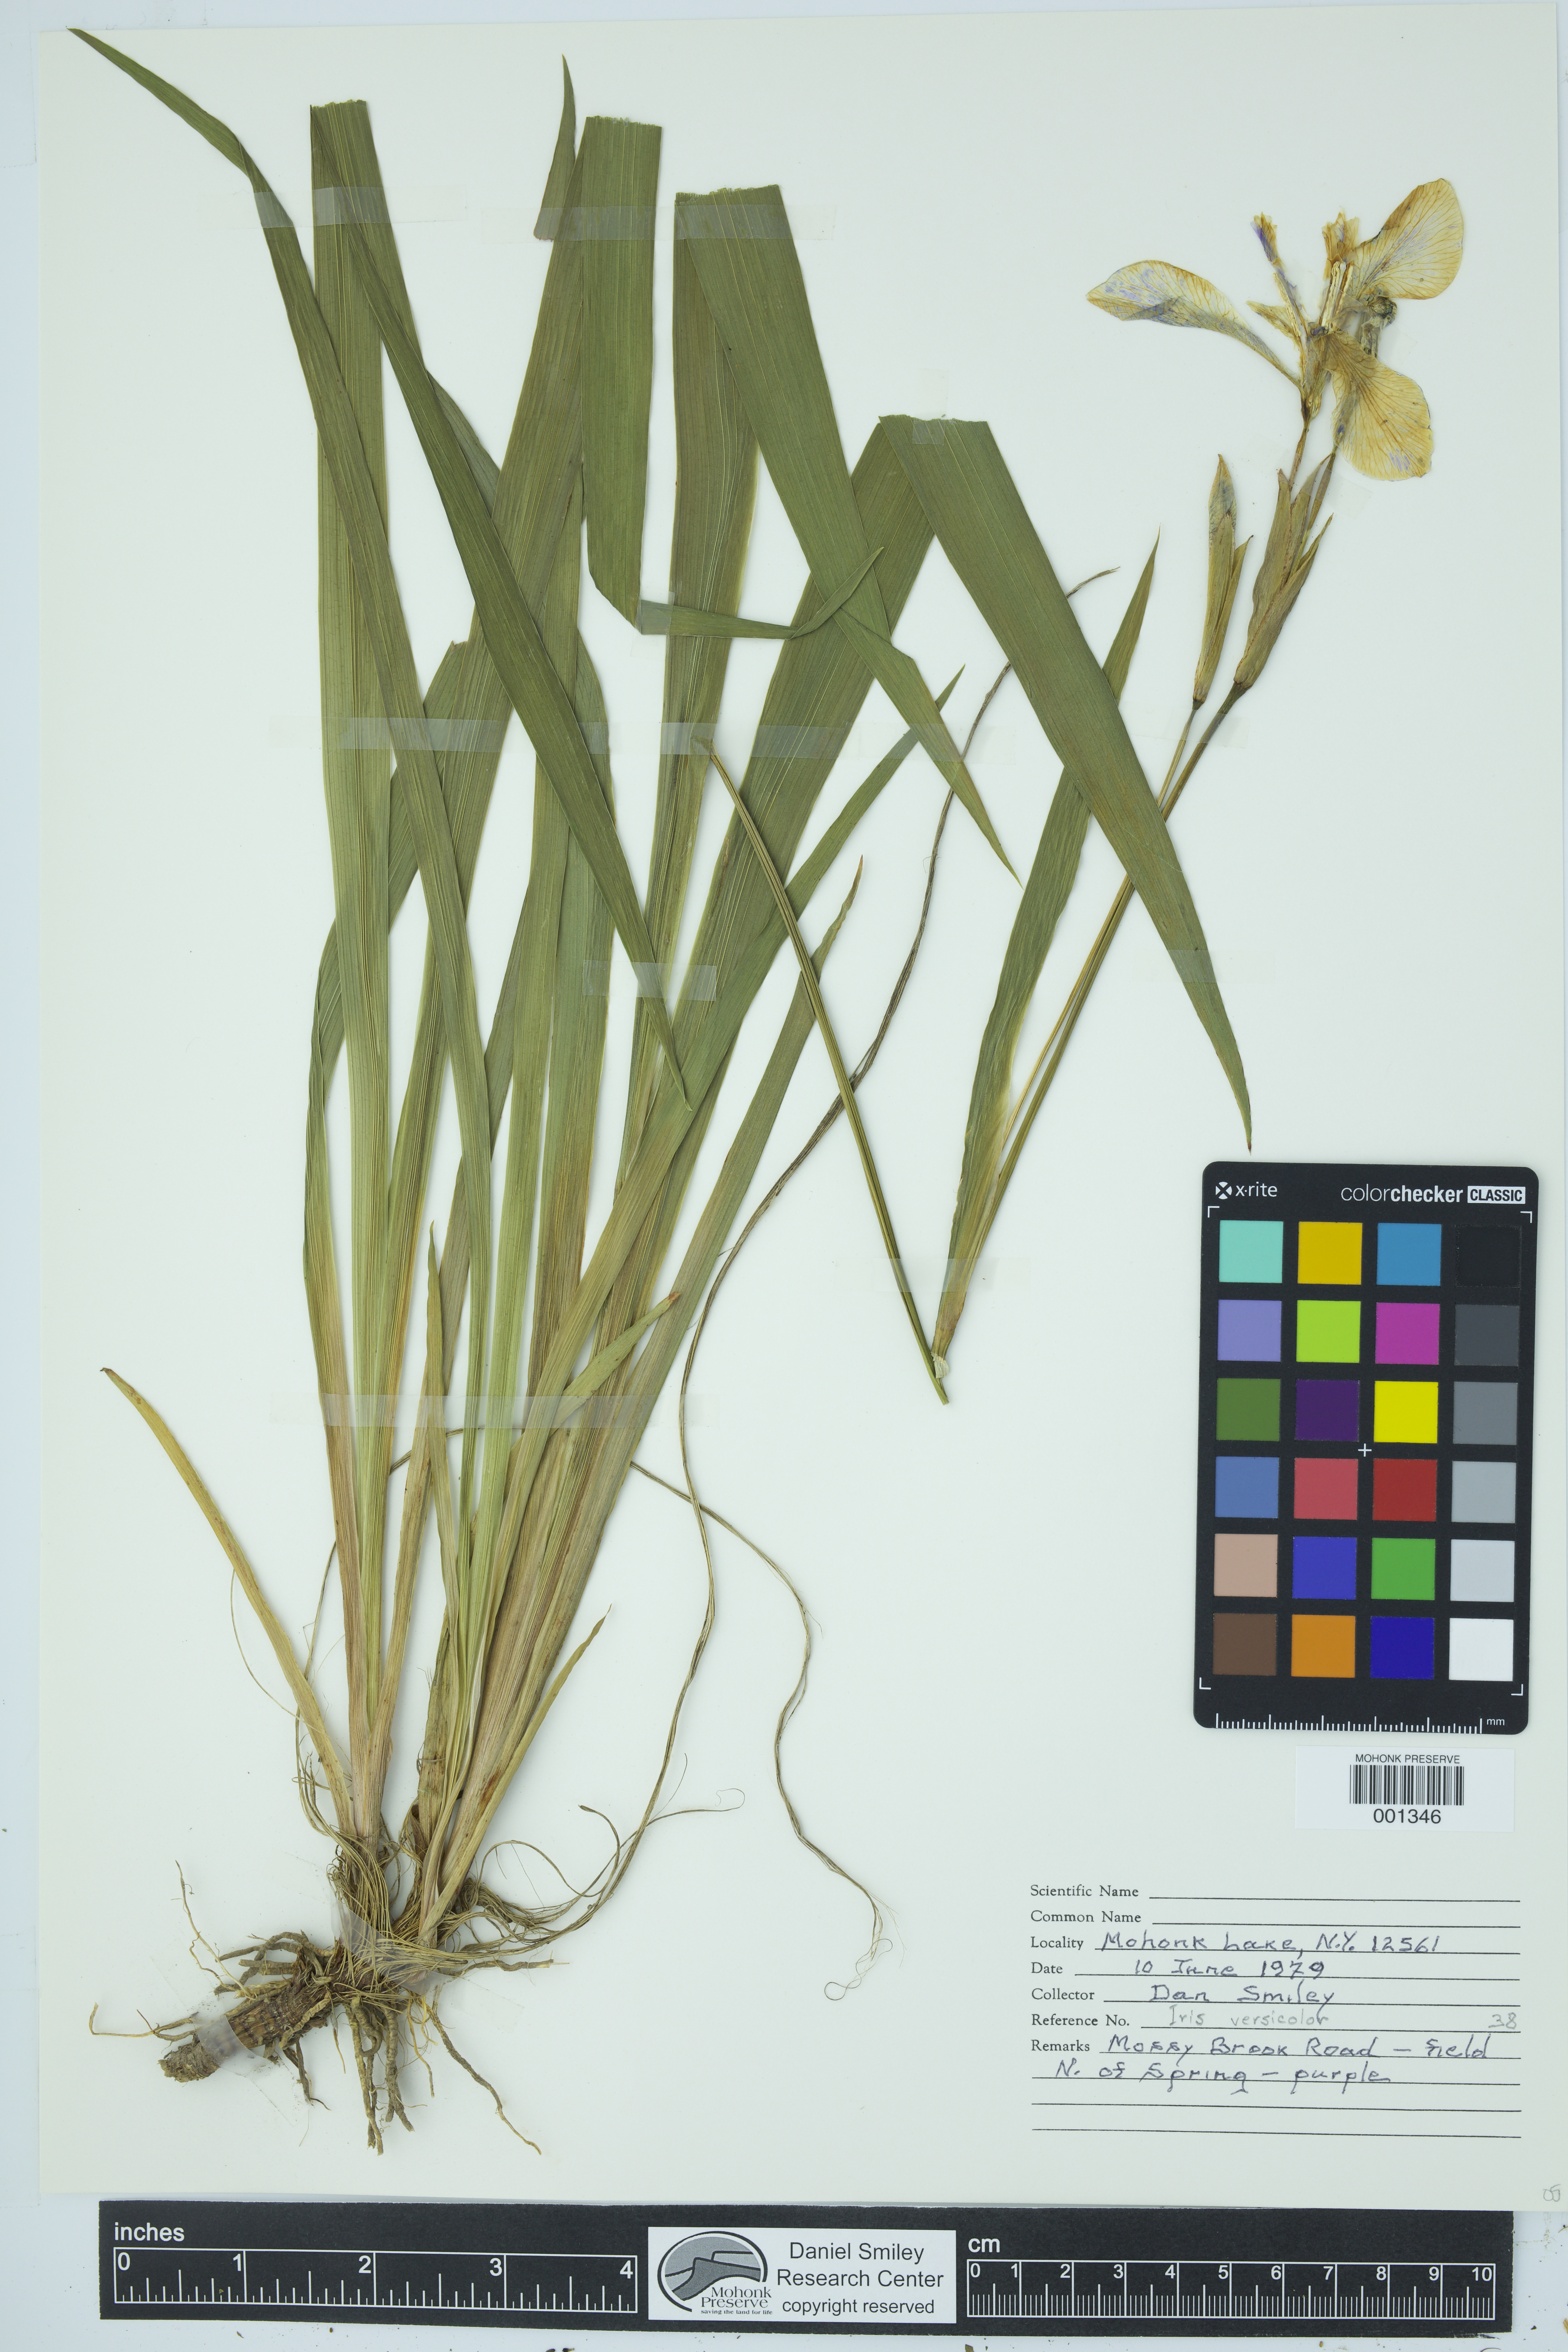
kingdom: Plantae
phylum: Tracheophyta
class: Liliopsida
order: Asparagales
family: Iridaceae
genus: Iris
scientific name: Iris versicolor
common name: Purple iris
